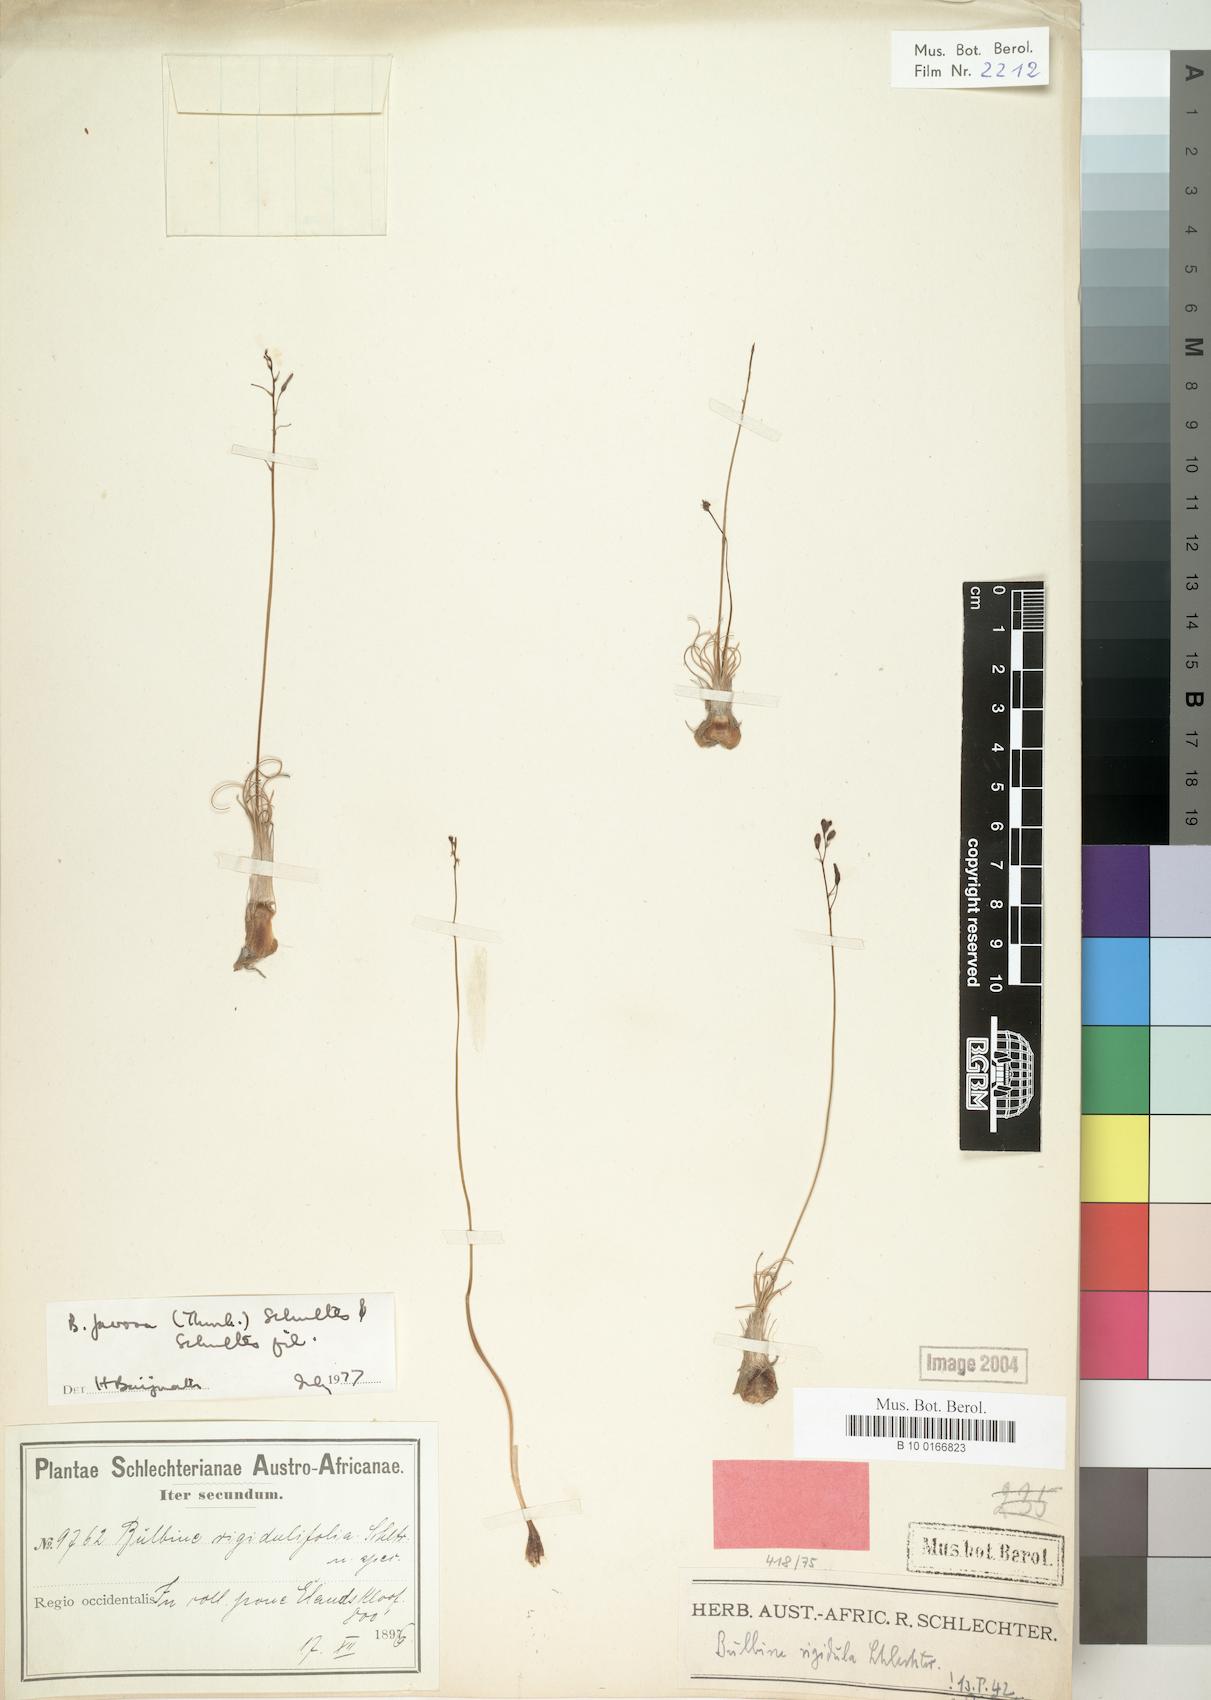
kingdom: Plantae
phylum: Tracheophyta
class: Liliopsida
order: Asparagales
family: Asphodelaceae
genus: Bulbine
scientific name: Bulbine favosa
